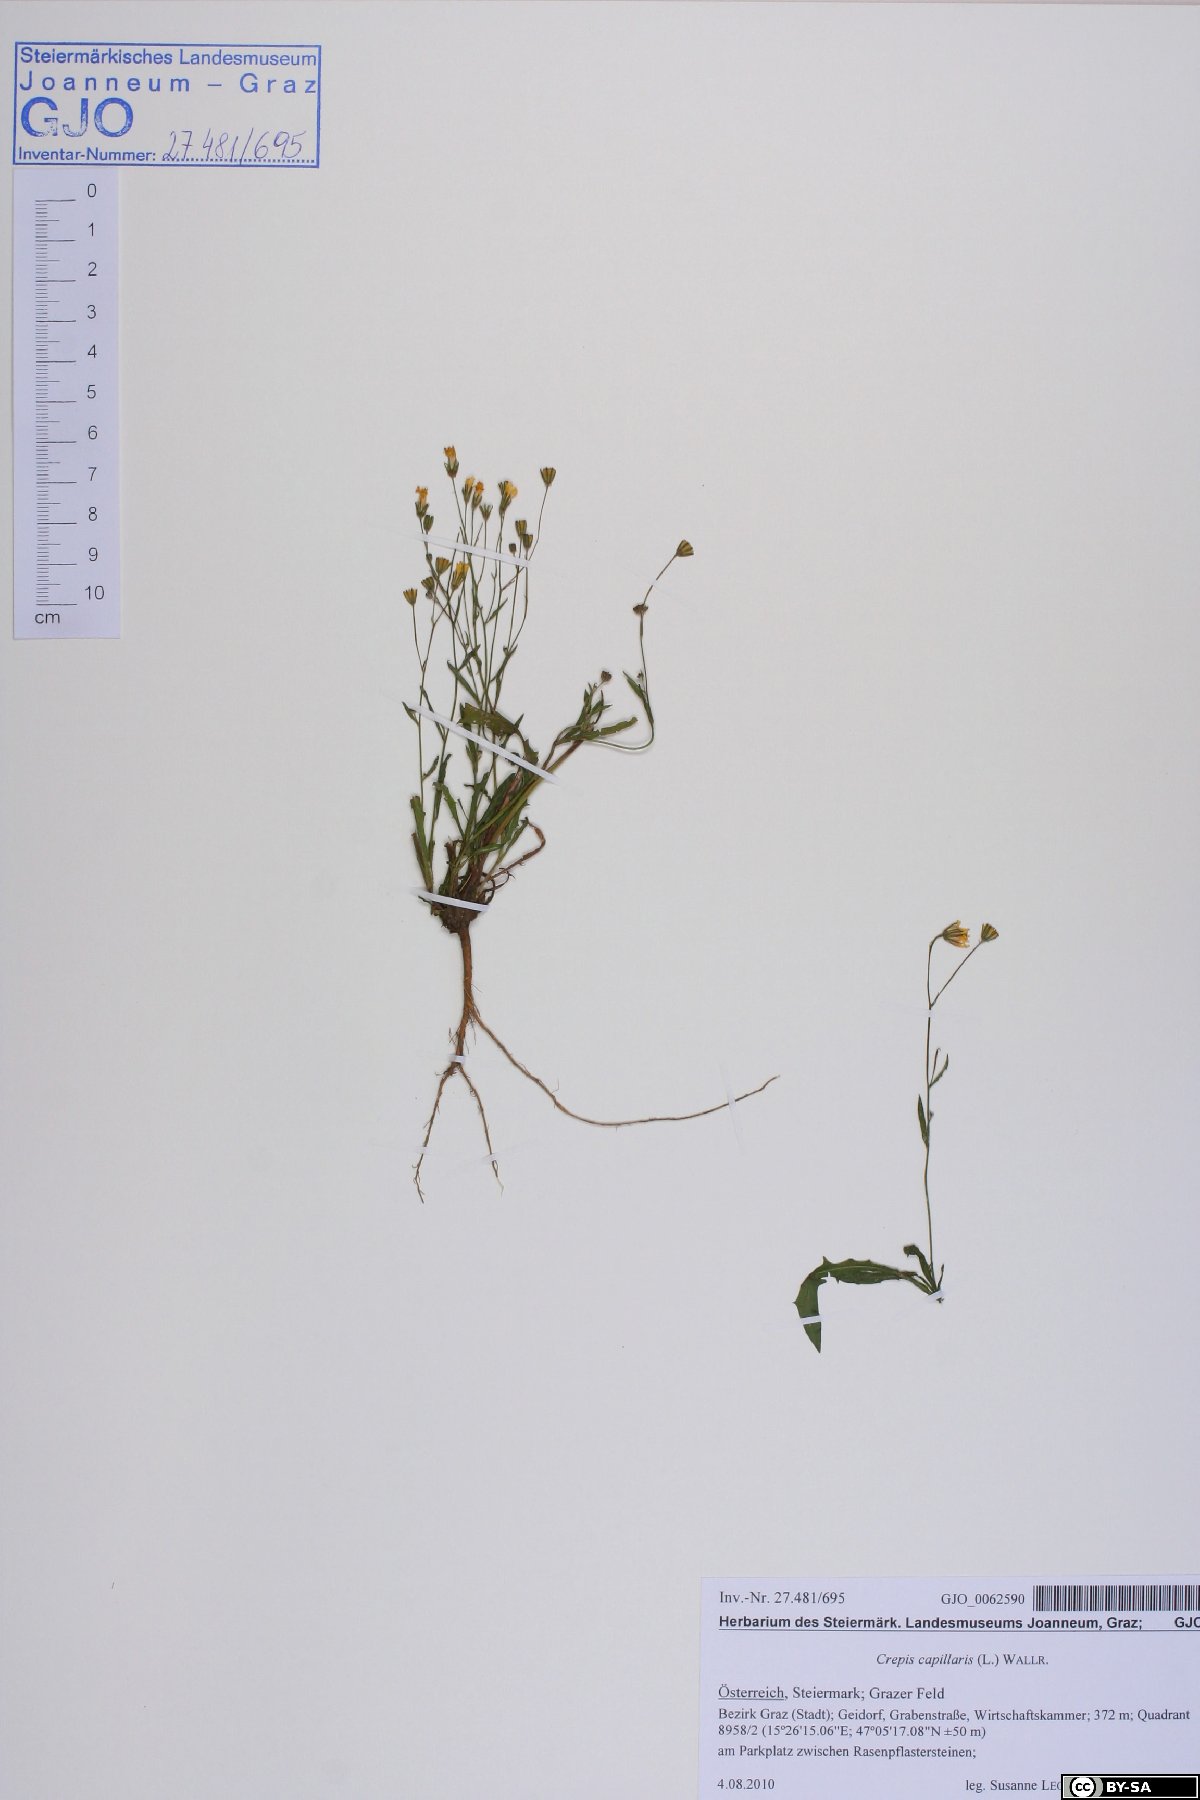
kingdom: Plantae
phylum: Tracheophyta
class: Magnoliopsida
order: Asterales
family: Asteraceae
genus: Crepis
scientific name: Crepis capillaris
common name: Smooth hawksbeard
